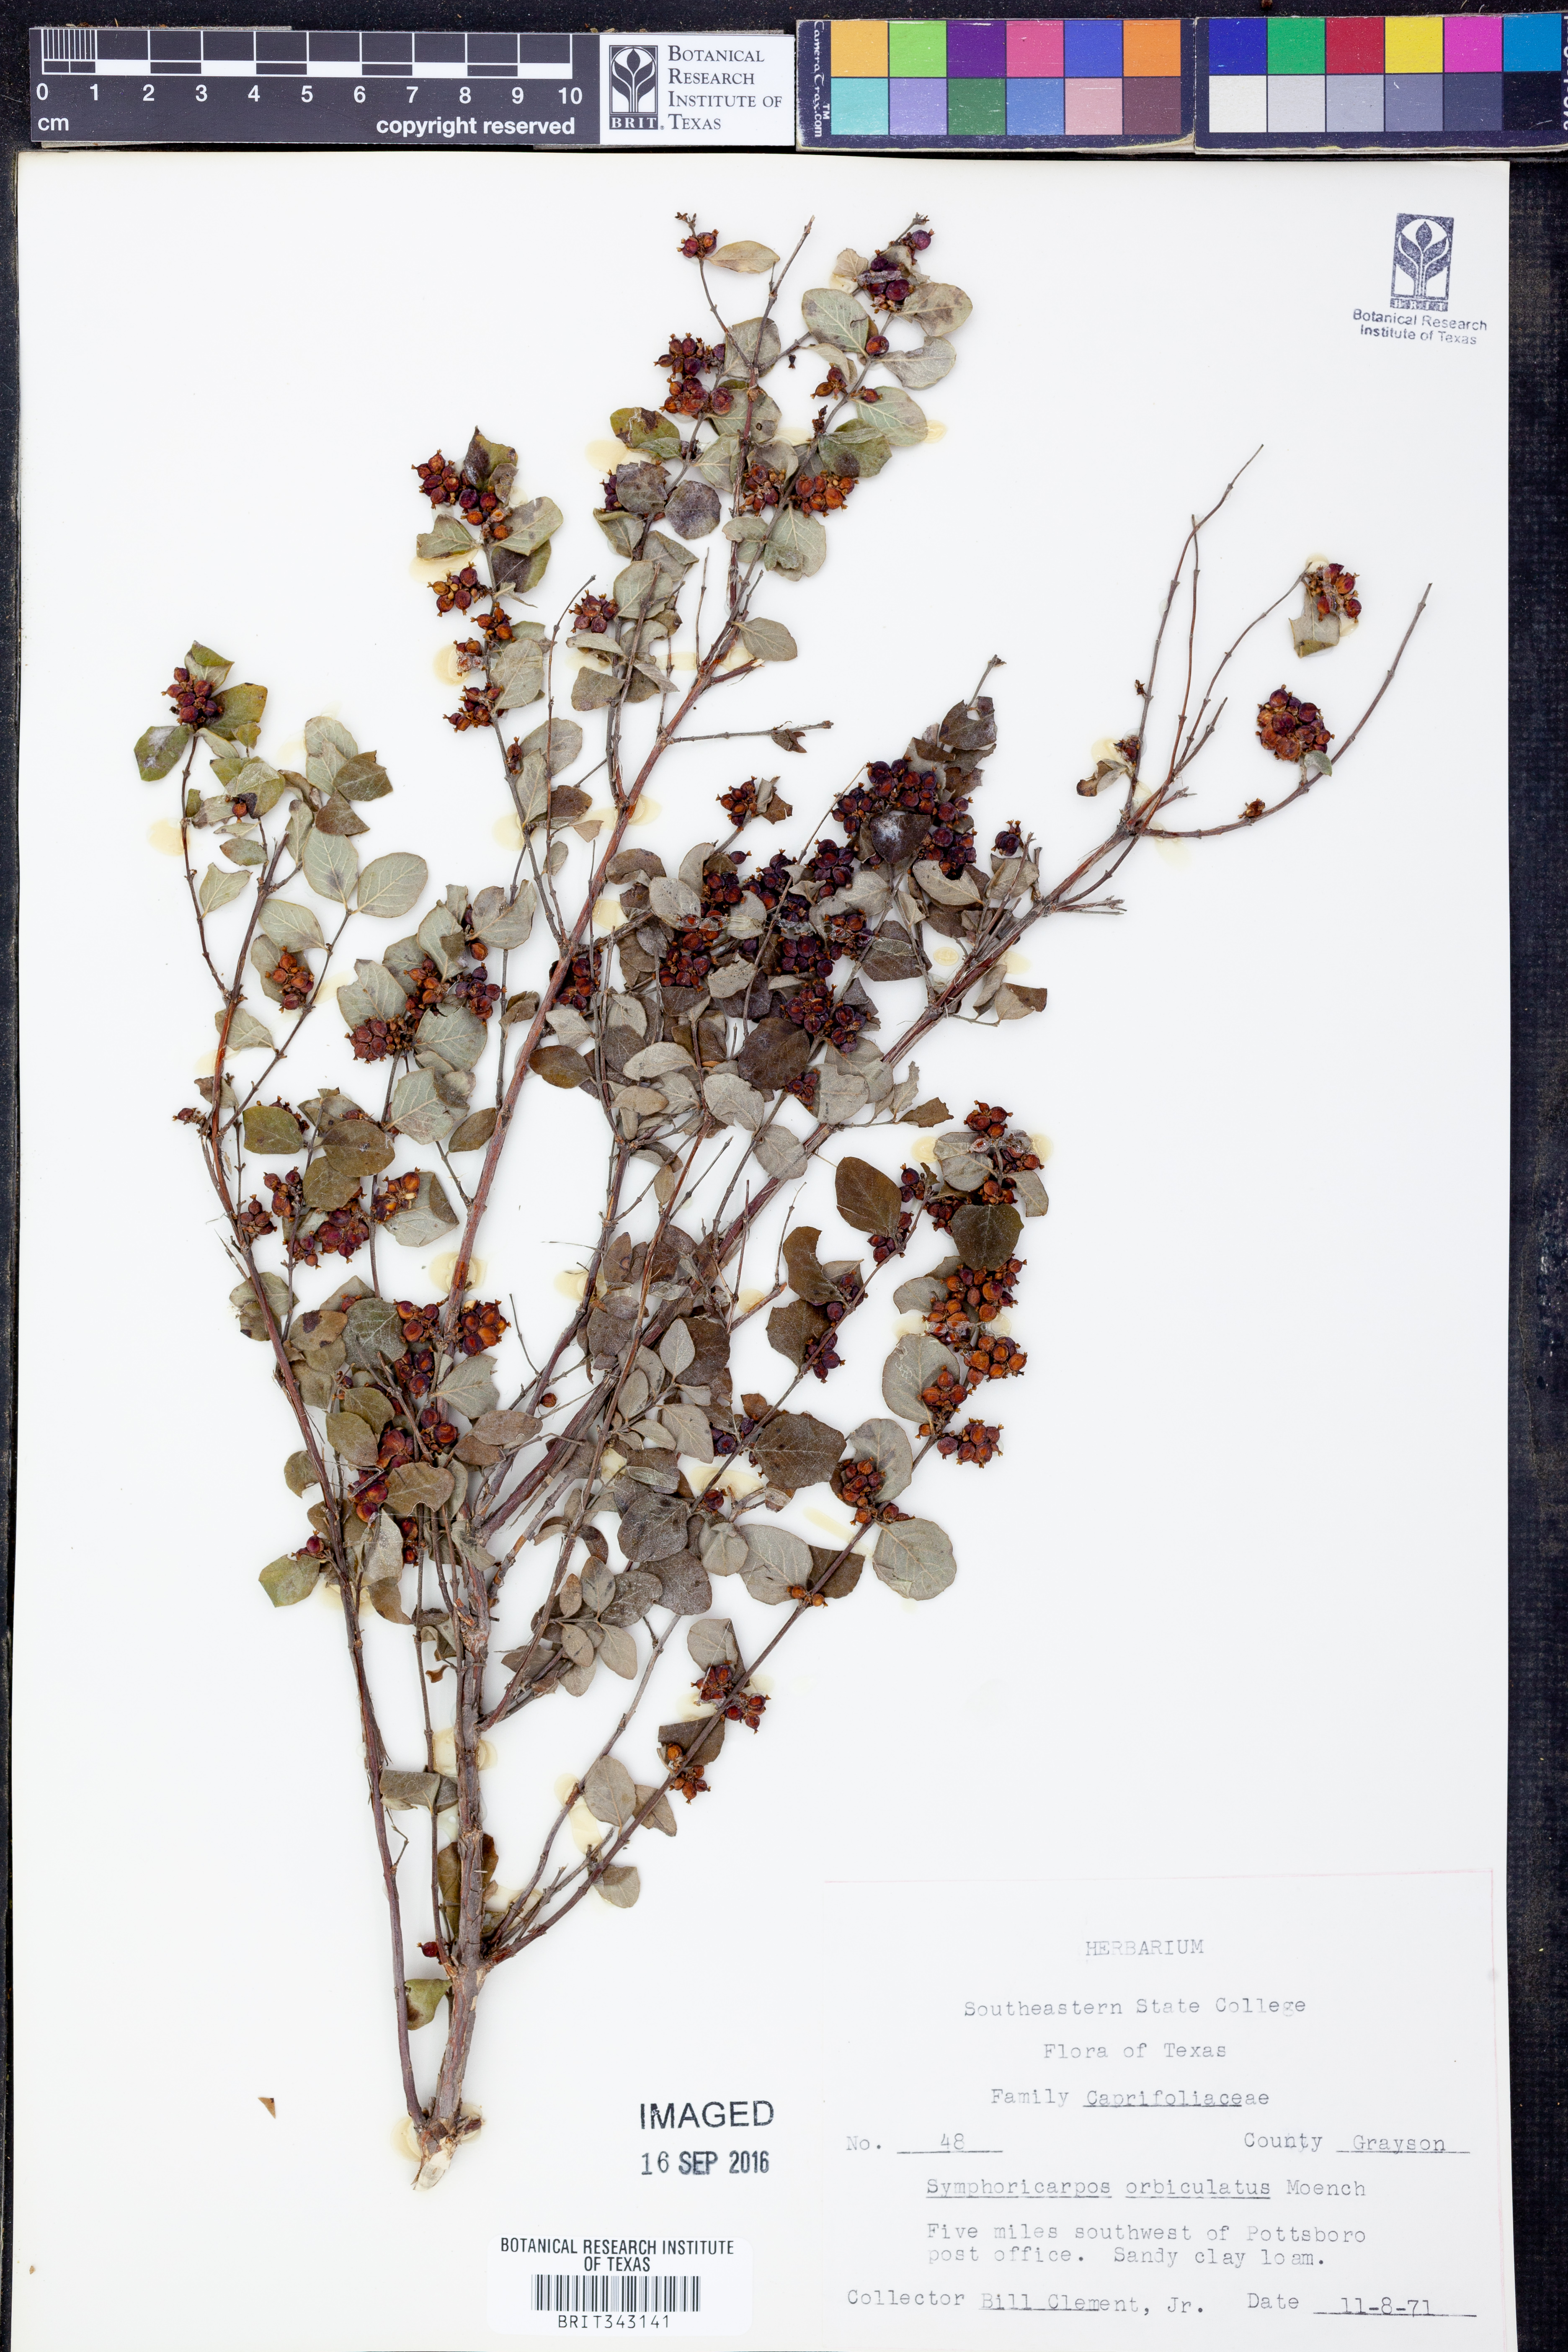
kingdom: Plantae
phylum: Tracheophyta
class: Magnoliopsida
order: Dipsacales
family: Caprifoliaceae
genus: Symphoricarpos
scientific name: Symphoricarpos orbiculatus
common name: Coralberry
